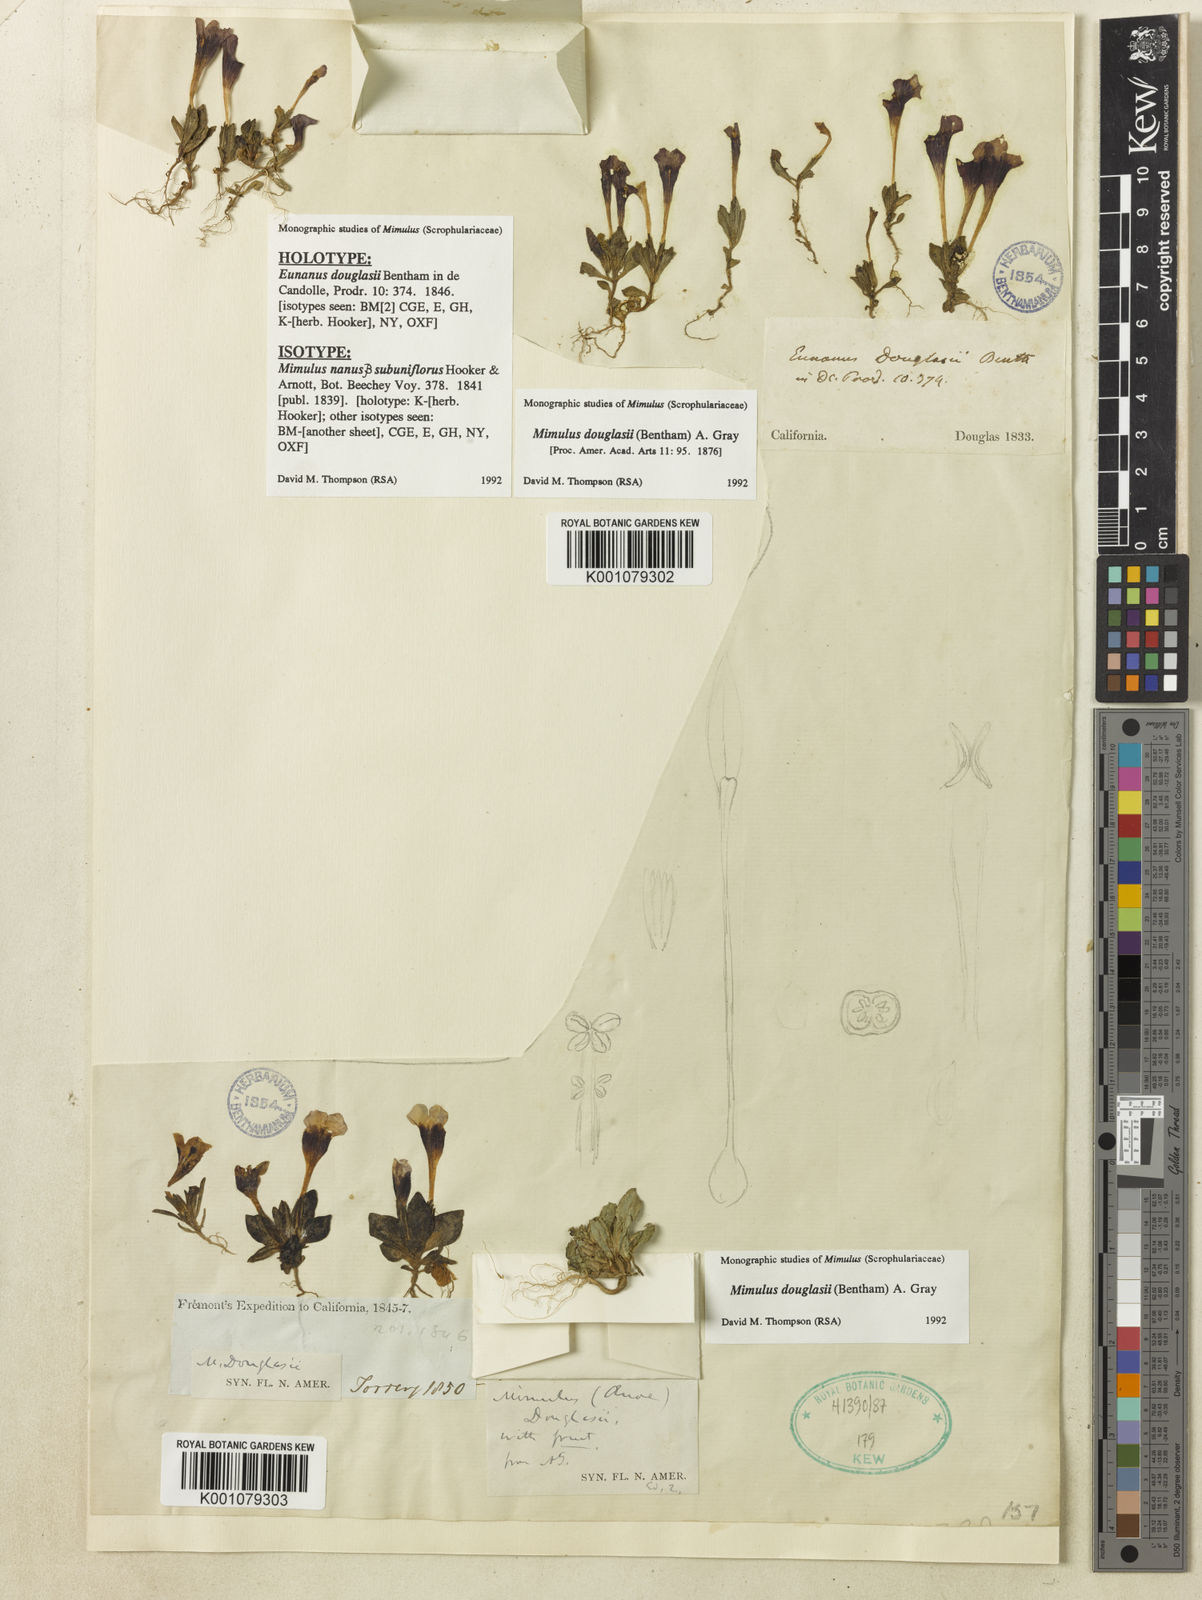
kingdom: Plantae
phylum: Tracheophyta
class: Magnoliopsida
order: Lamiales
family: Phrymaceae
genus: Diplacus
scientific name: Diplacus douglasii
